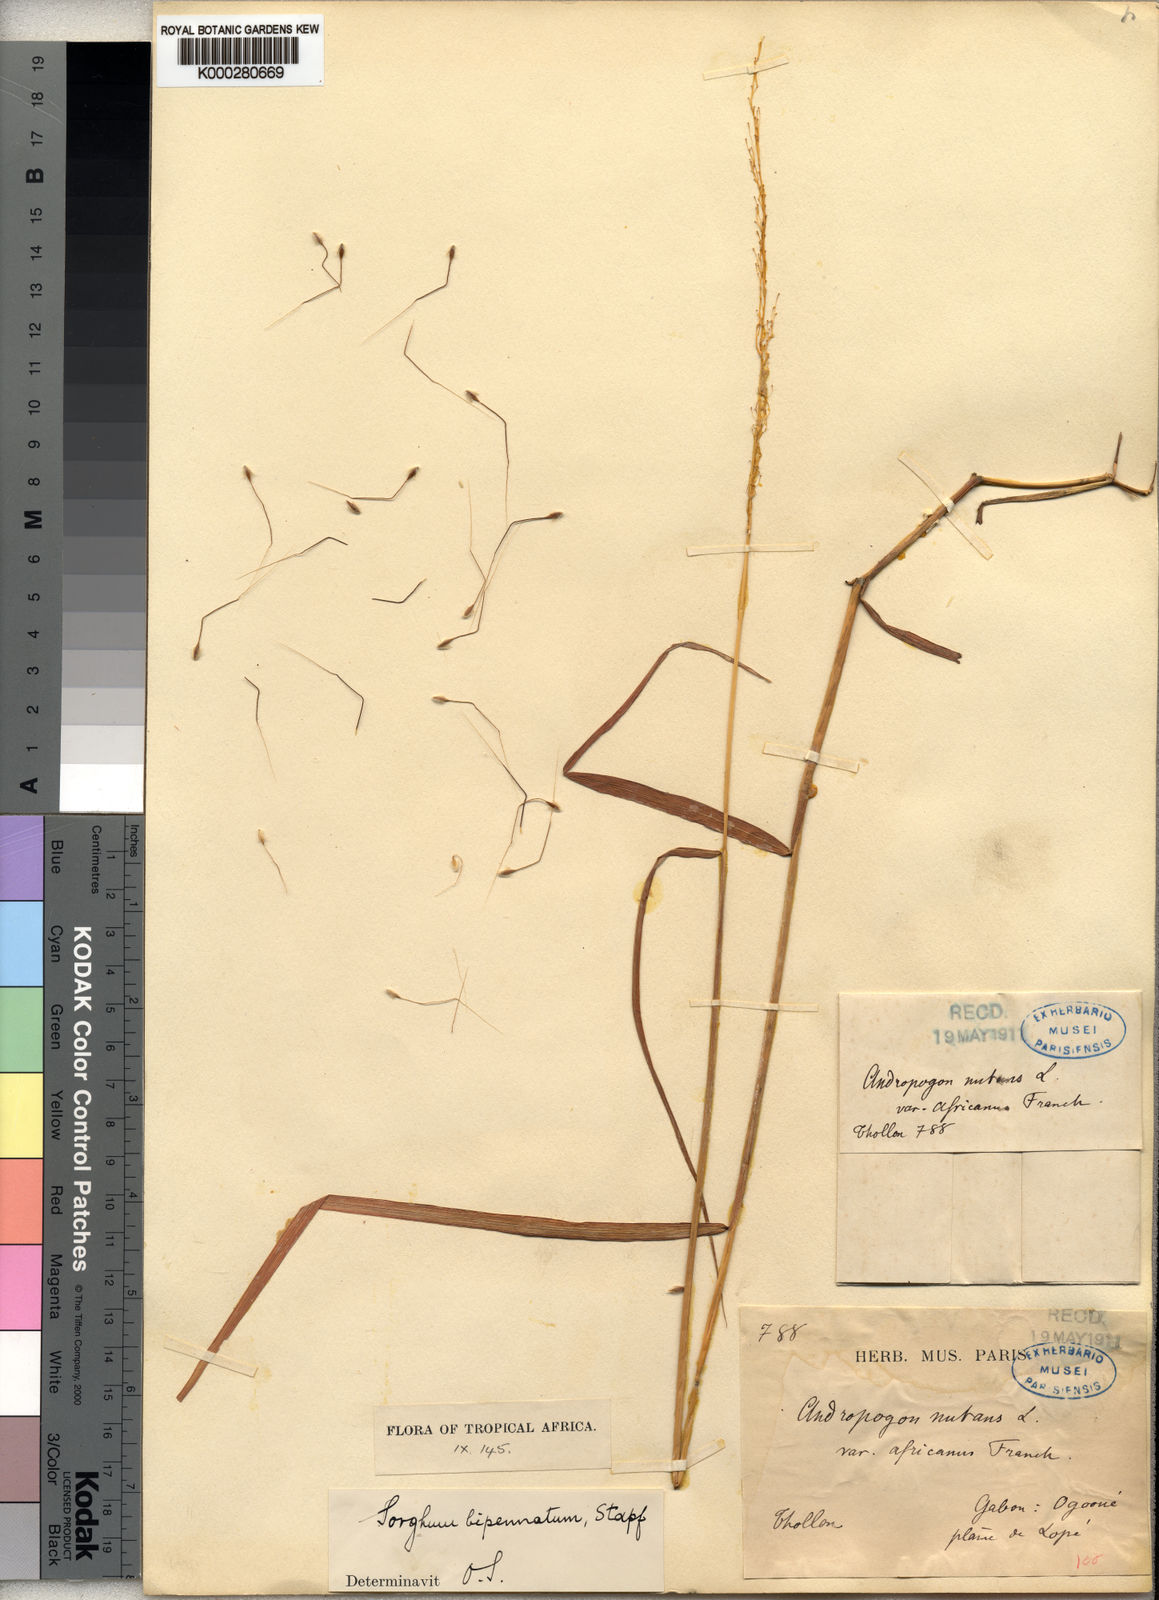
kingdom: Plantae
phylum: Tracheophyta
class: Liliopsida
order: Poales
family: Poaceae
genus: Sorghastrum
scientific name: Sorghastrum incompletum
